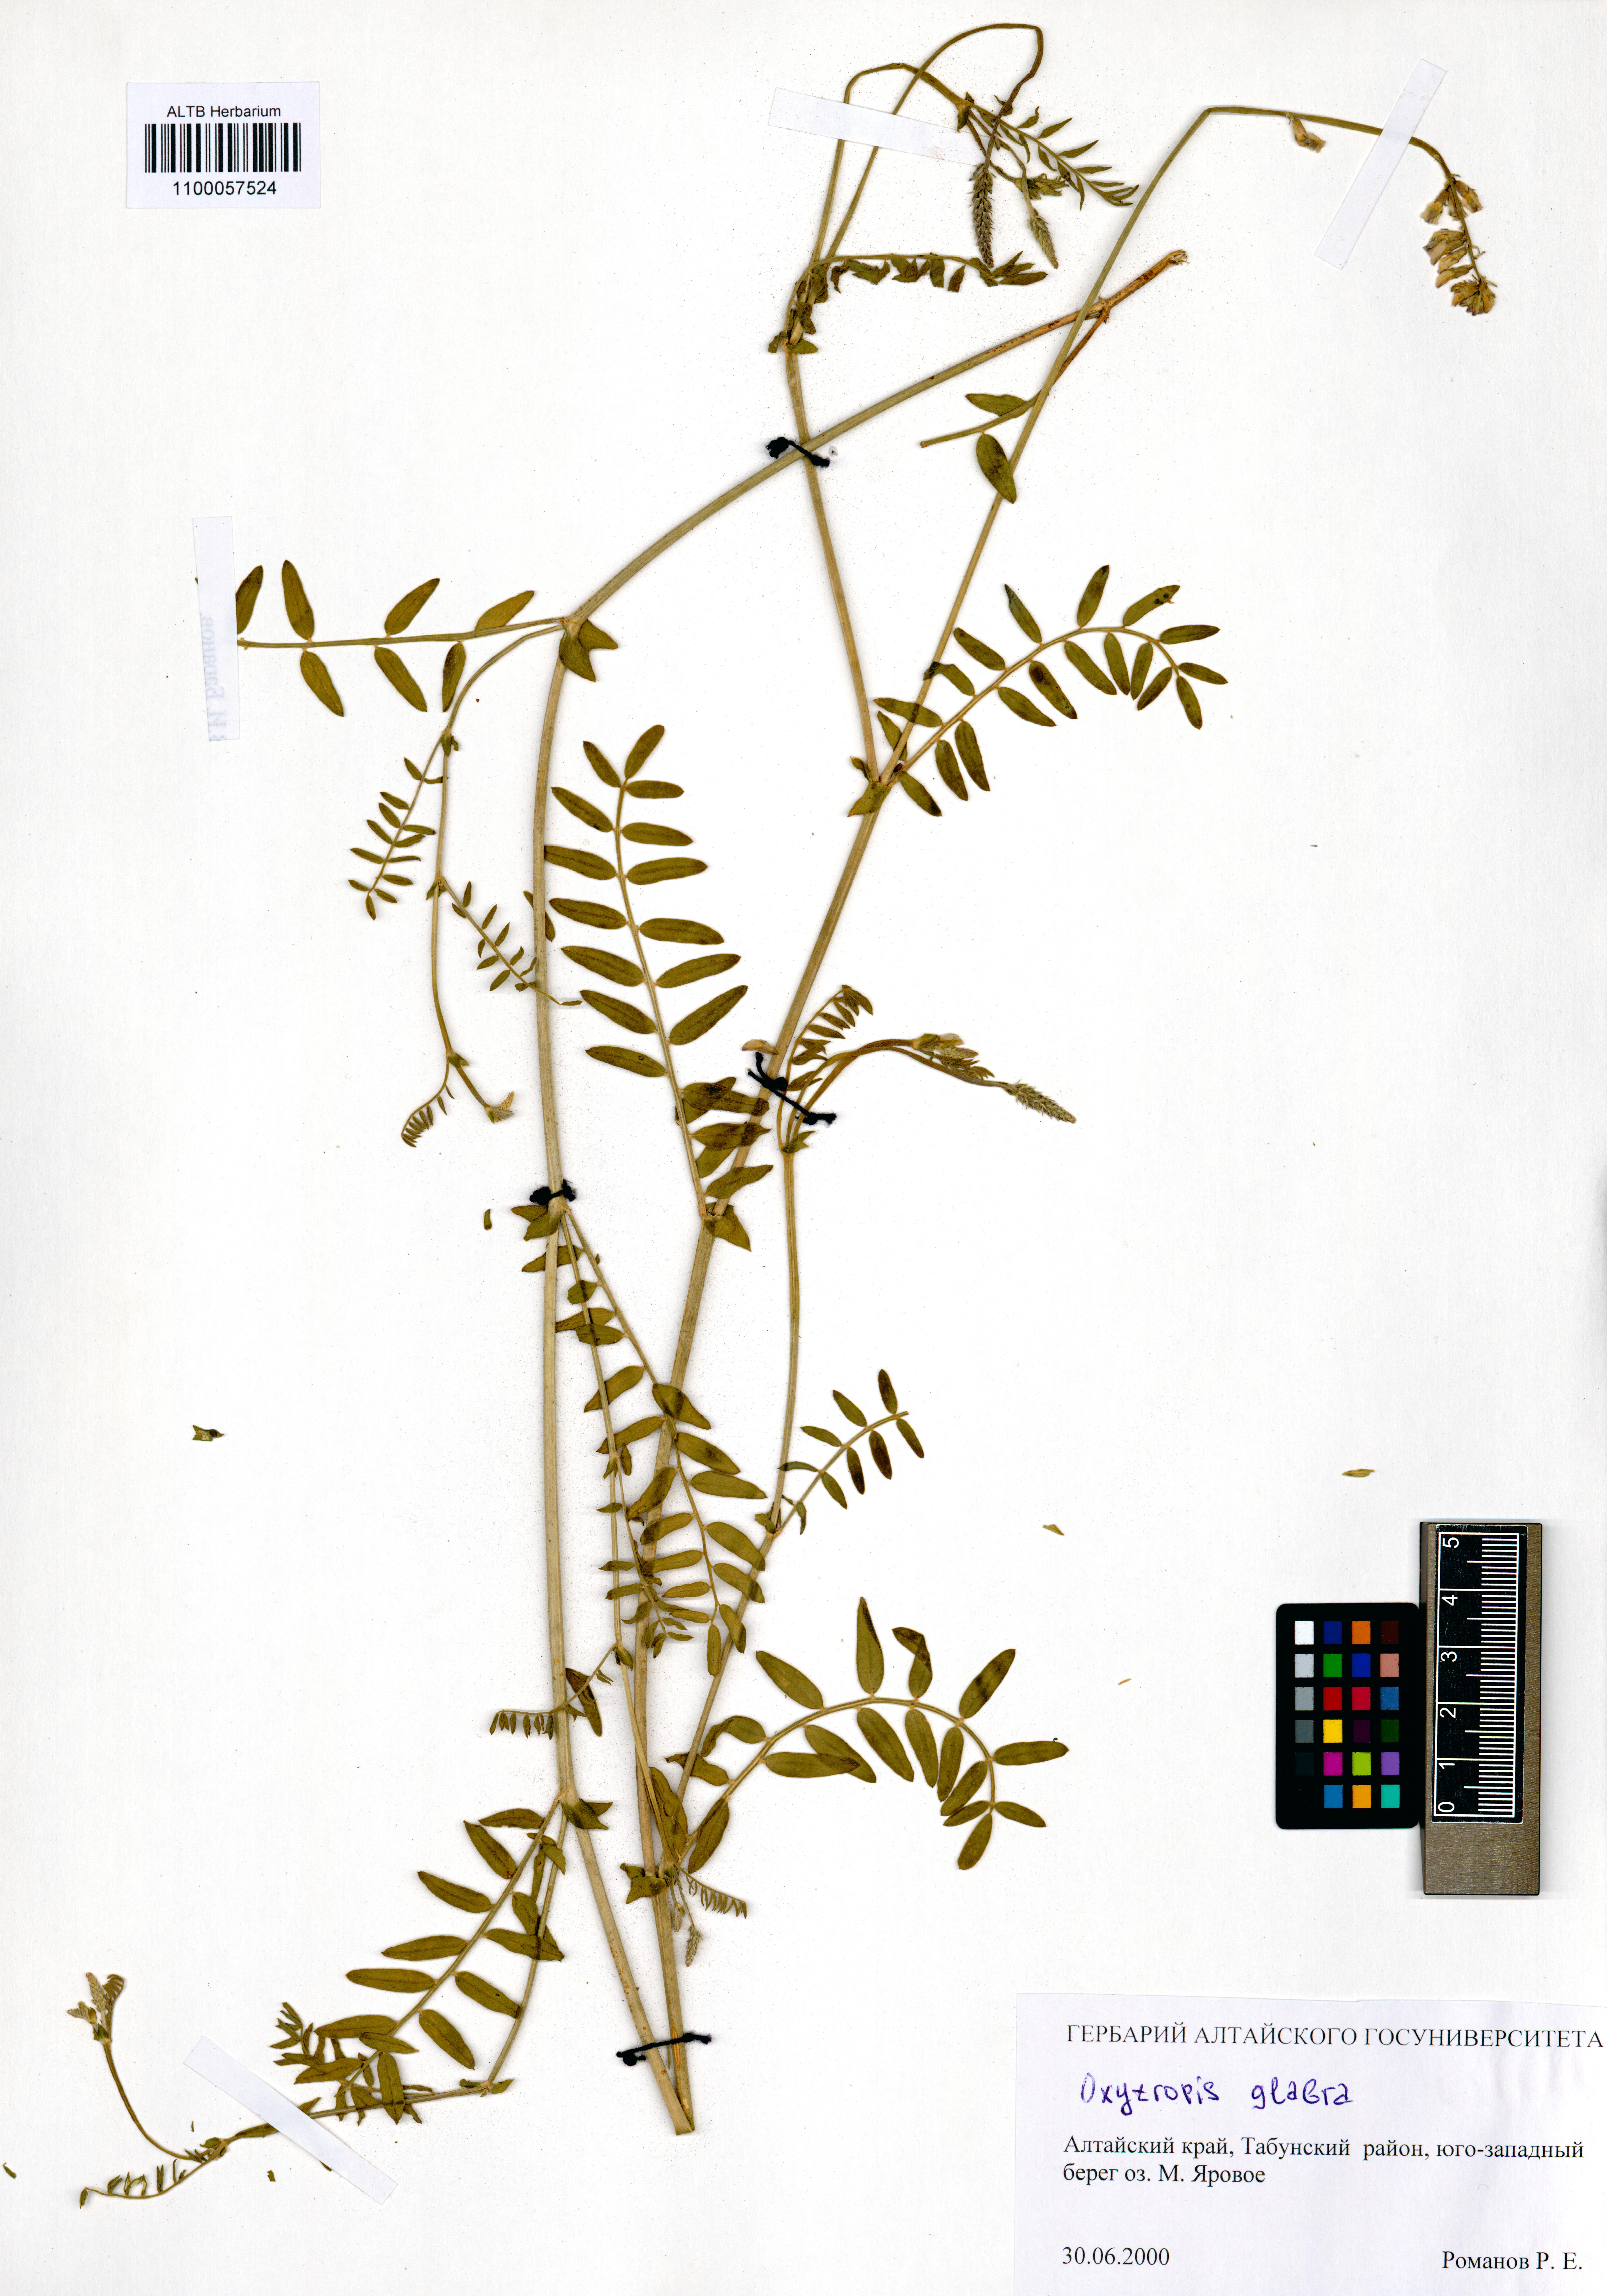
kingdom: Plantae
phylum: Tracheophyta
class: Magnoliopsida
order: Fabales
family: Fabaceae
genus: Oxytropis
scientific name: Oxytropis glabra
